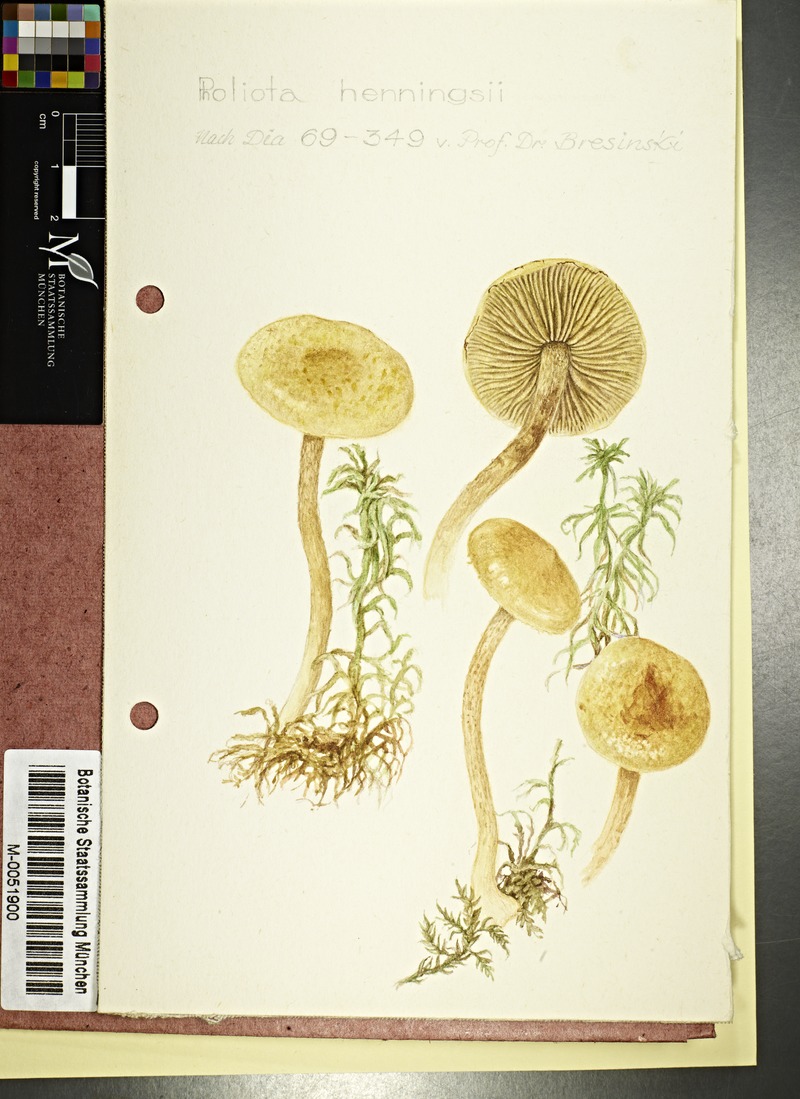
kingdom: Fungi
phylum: Basidiomycota
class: Agaricomycetes
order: Agaricales
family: Strophariaceae
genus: Pholiota
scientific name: Pholiota henningsii
